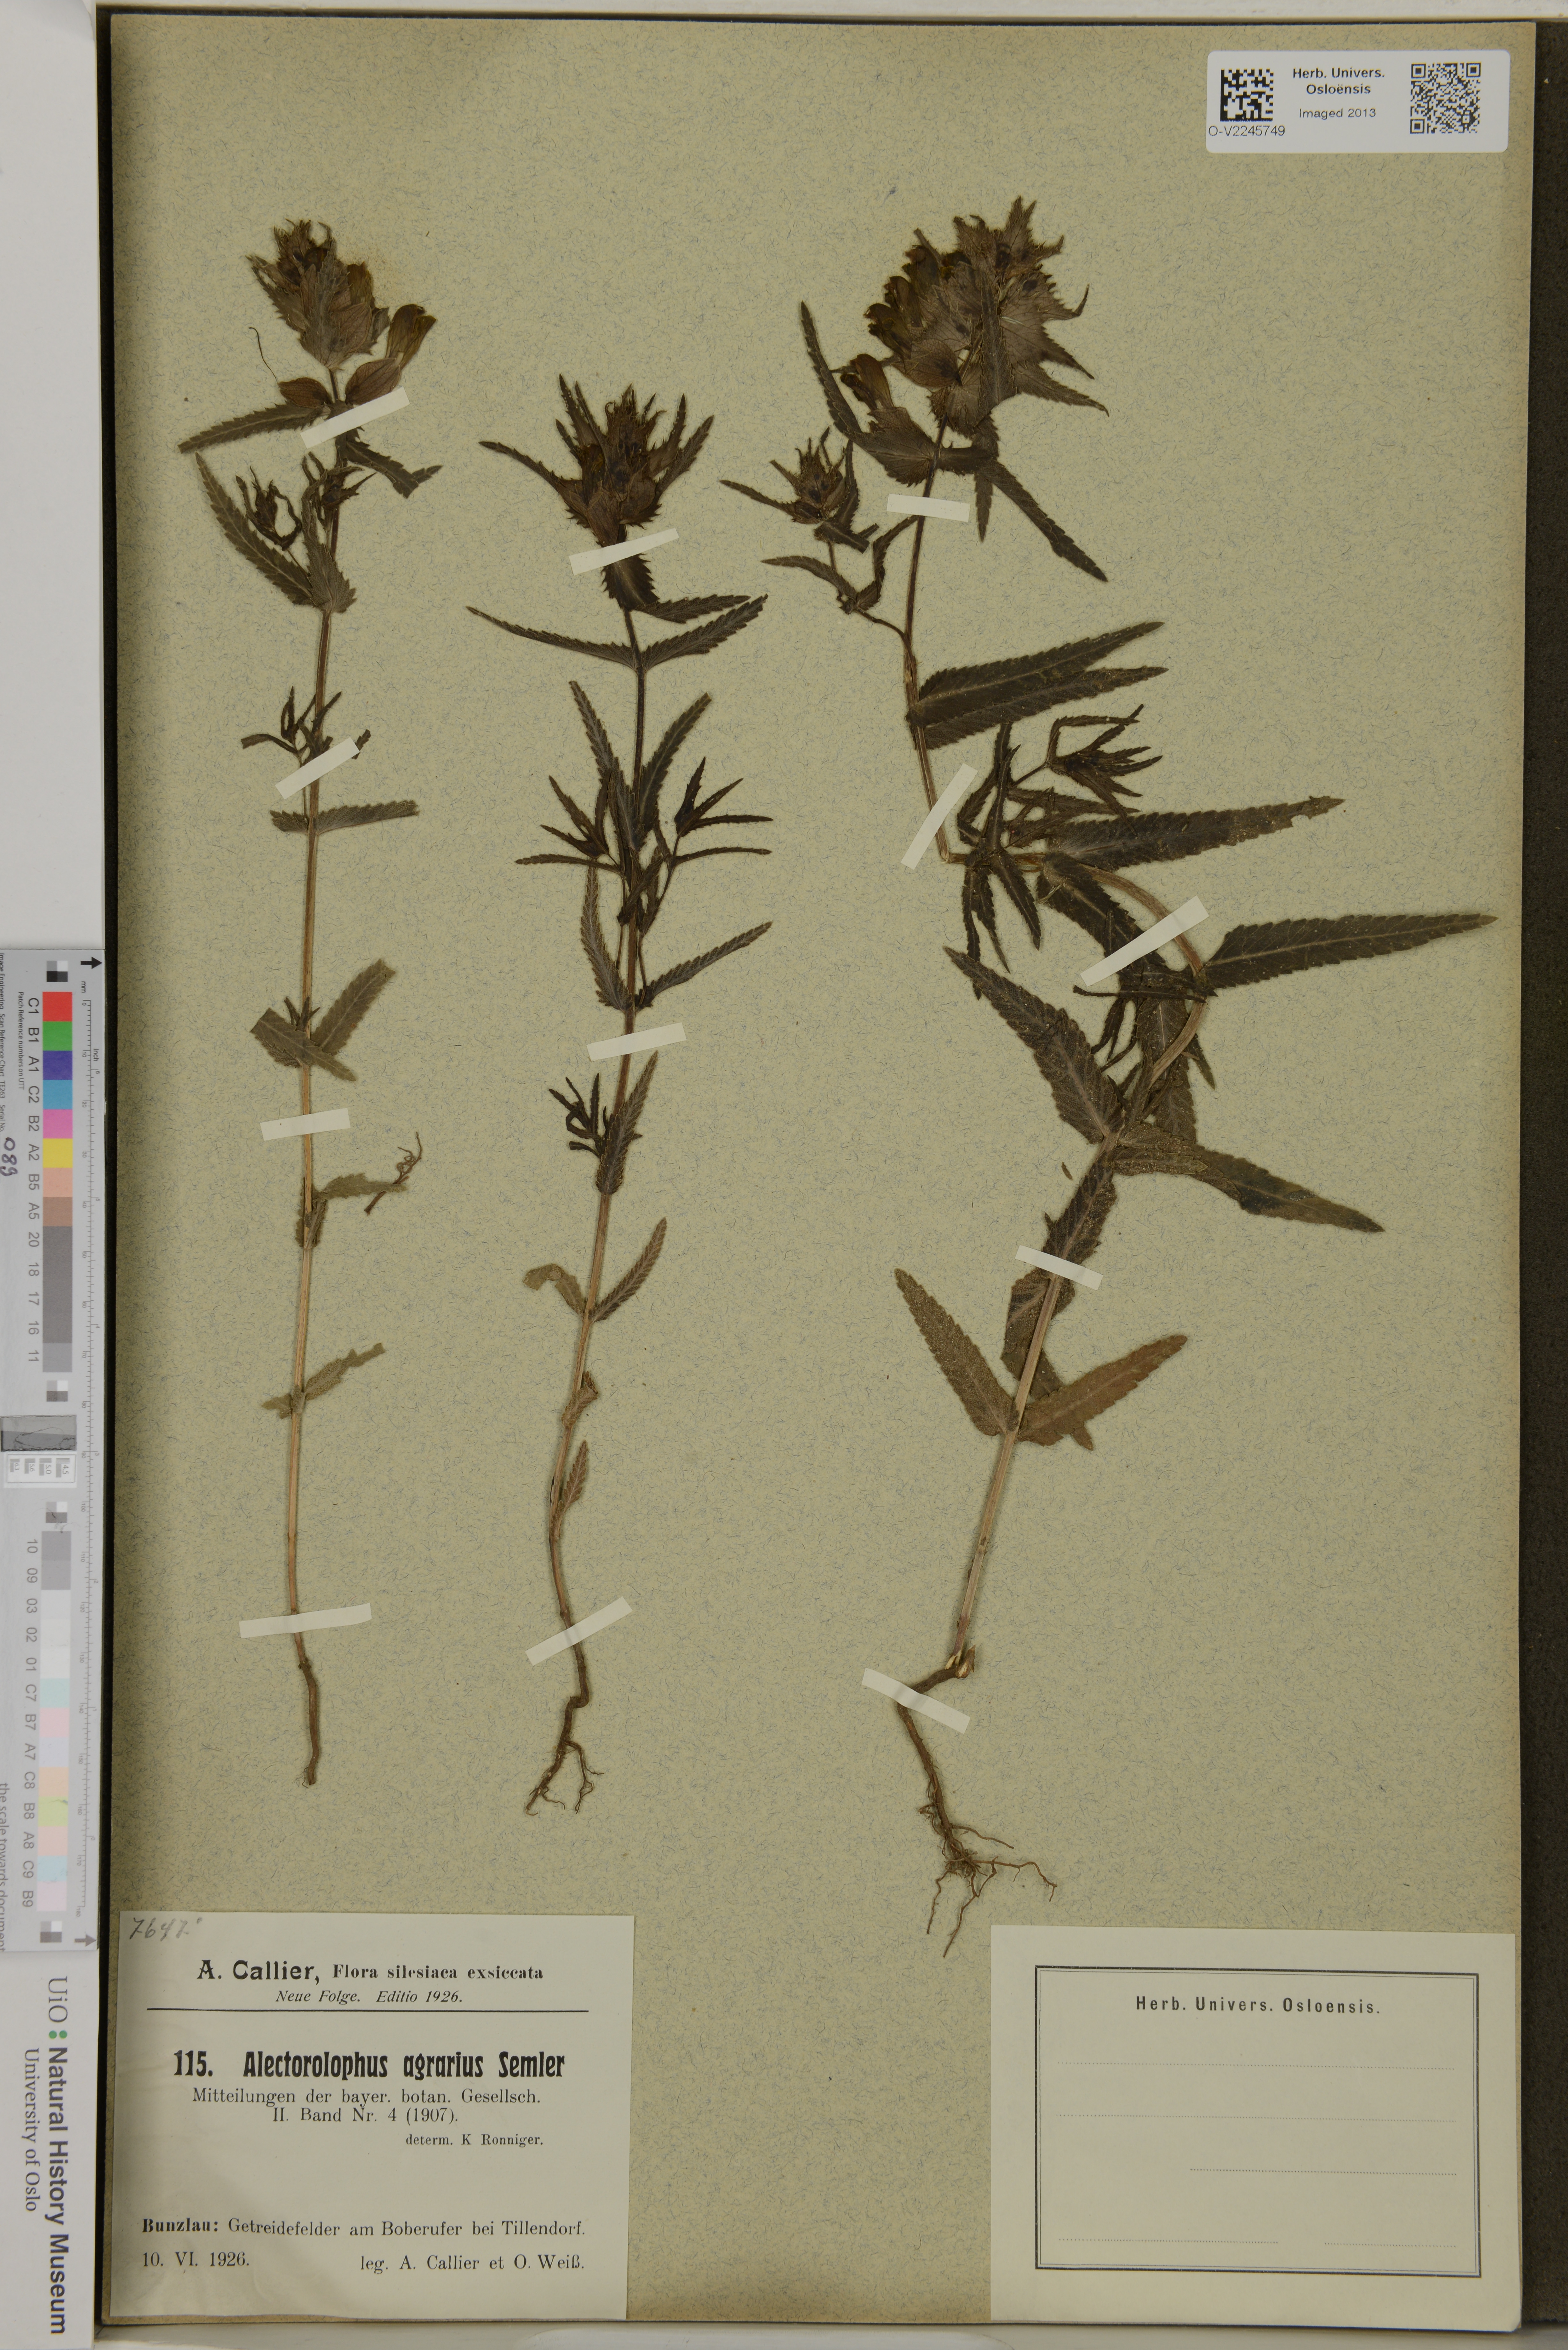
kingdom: Plantae
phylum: Tracheophyta
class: Magnoliopsida
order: Lamiales
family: Orobanchaceae
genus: Alectorolophus
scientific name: Alectorolophus
